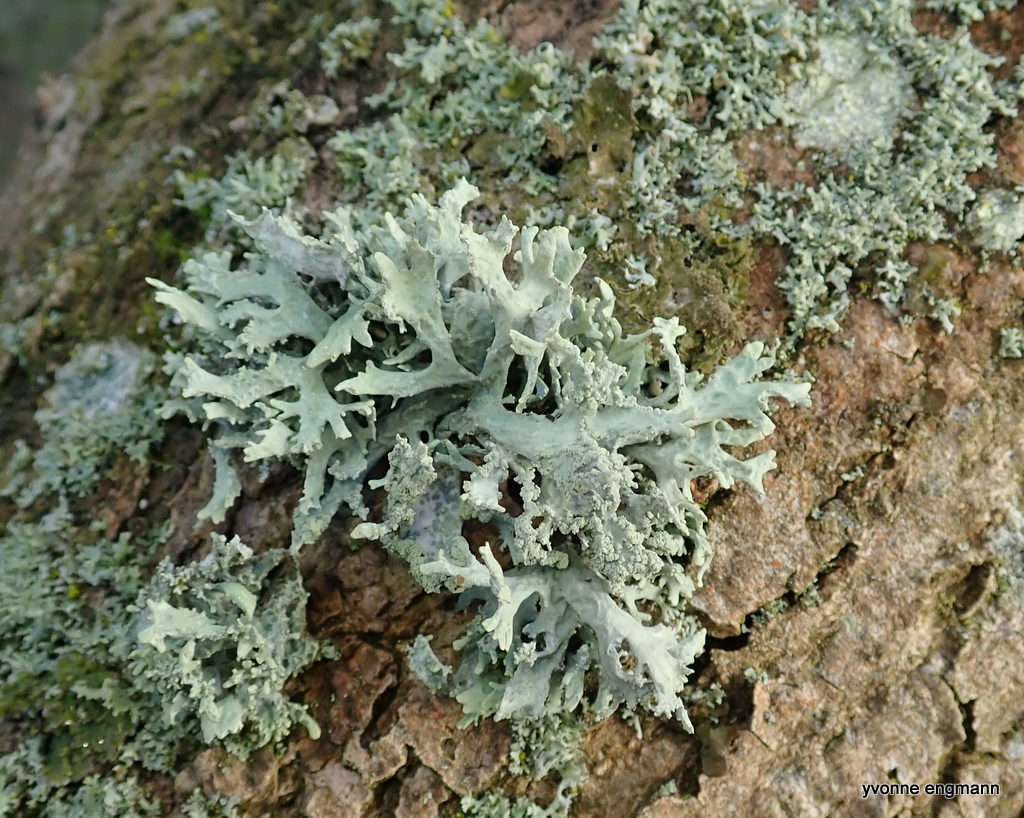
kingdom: Fungi
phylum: Ascomycota
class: Lecanoromycetes
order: Lecanorales
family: Parmeliaceae
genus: Evernia
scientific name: Evernia prunastri
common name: almindelig slåenlav
